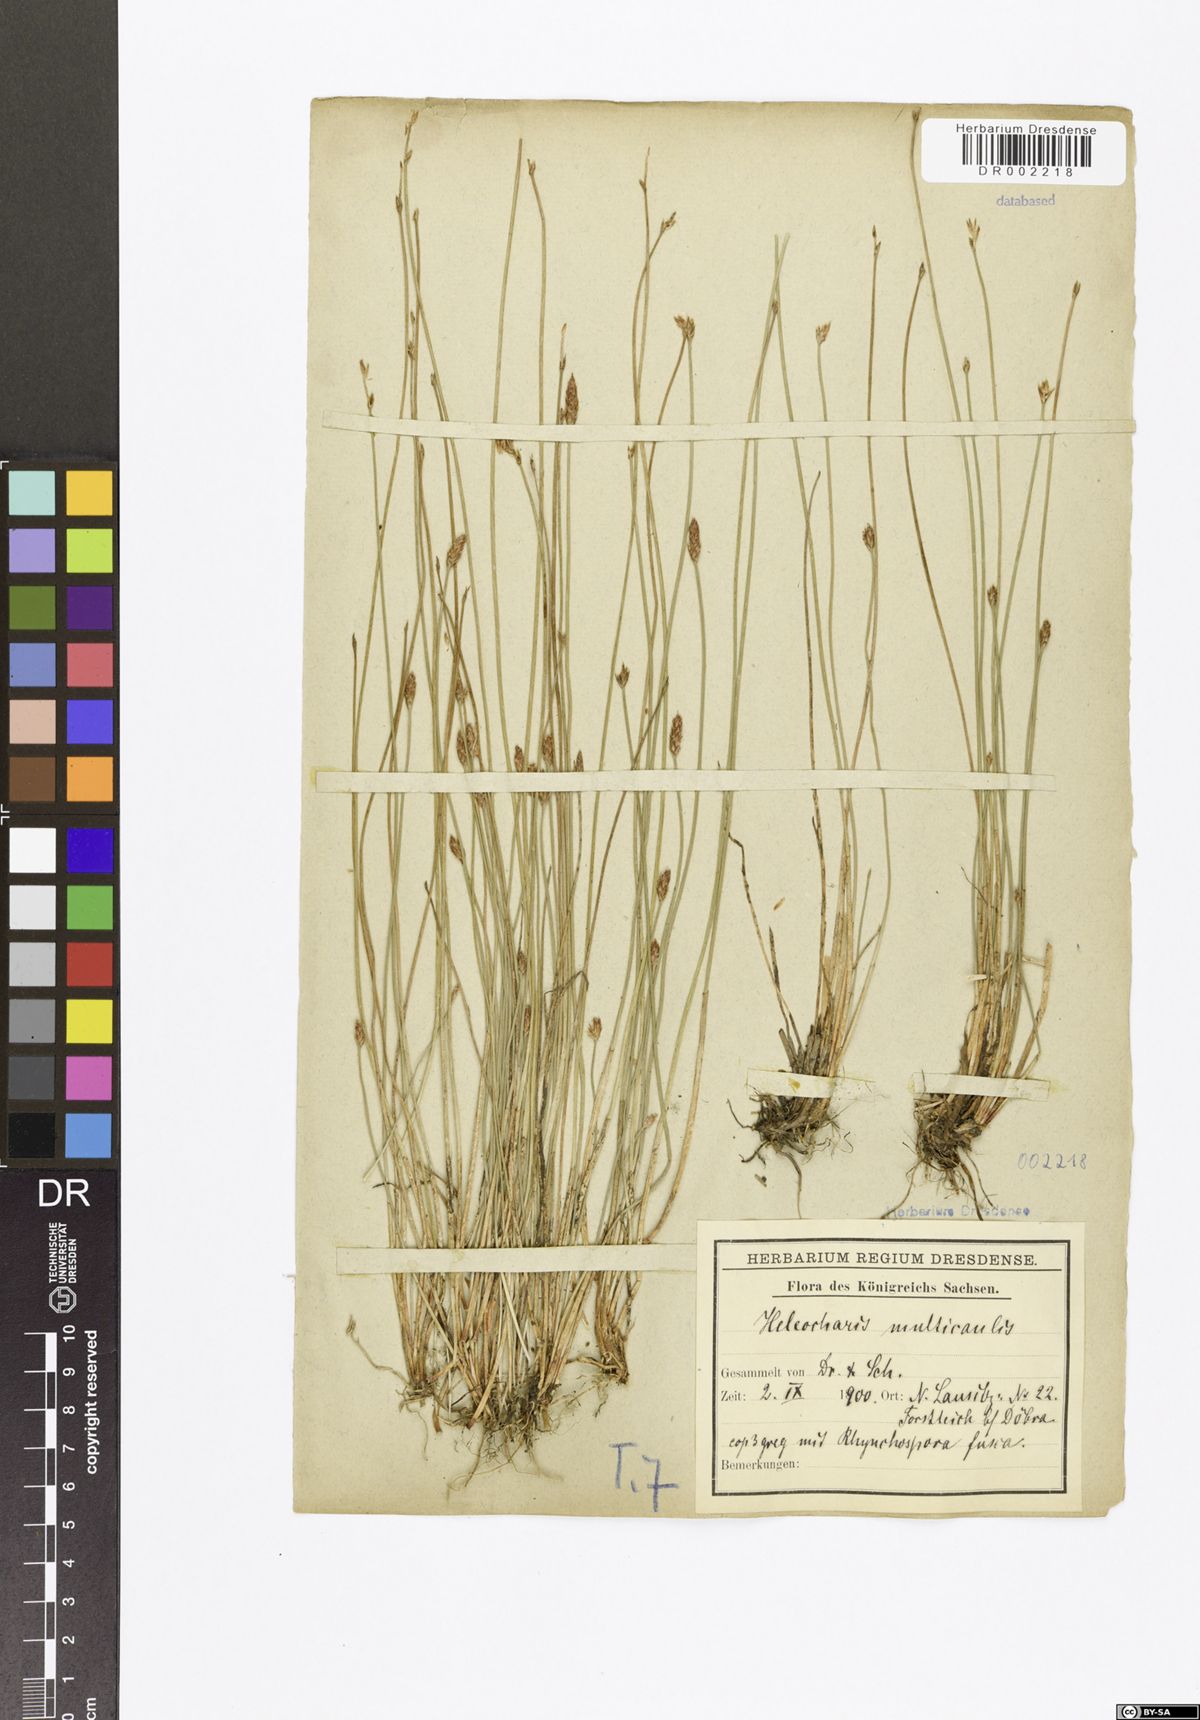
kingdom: Plantae
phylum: Tracheophyta
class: Liliopsida
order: Poales
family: Cyperaceae
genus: Eleocharis
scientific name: Eleocharis multicaulis
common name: Many-stalked spike-rush
